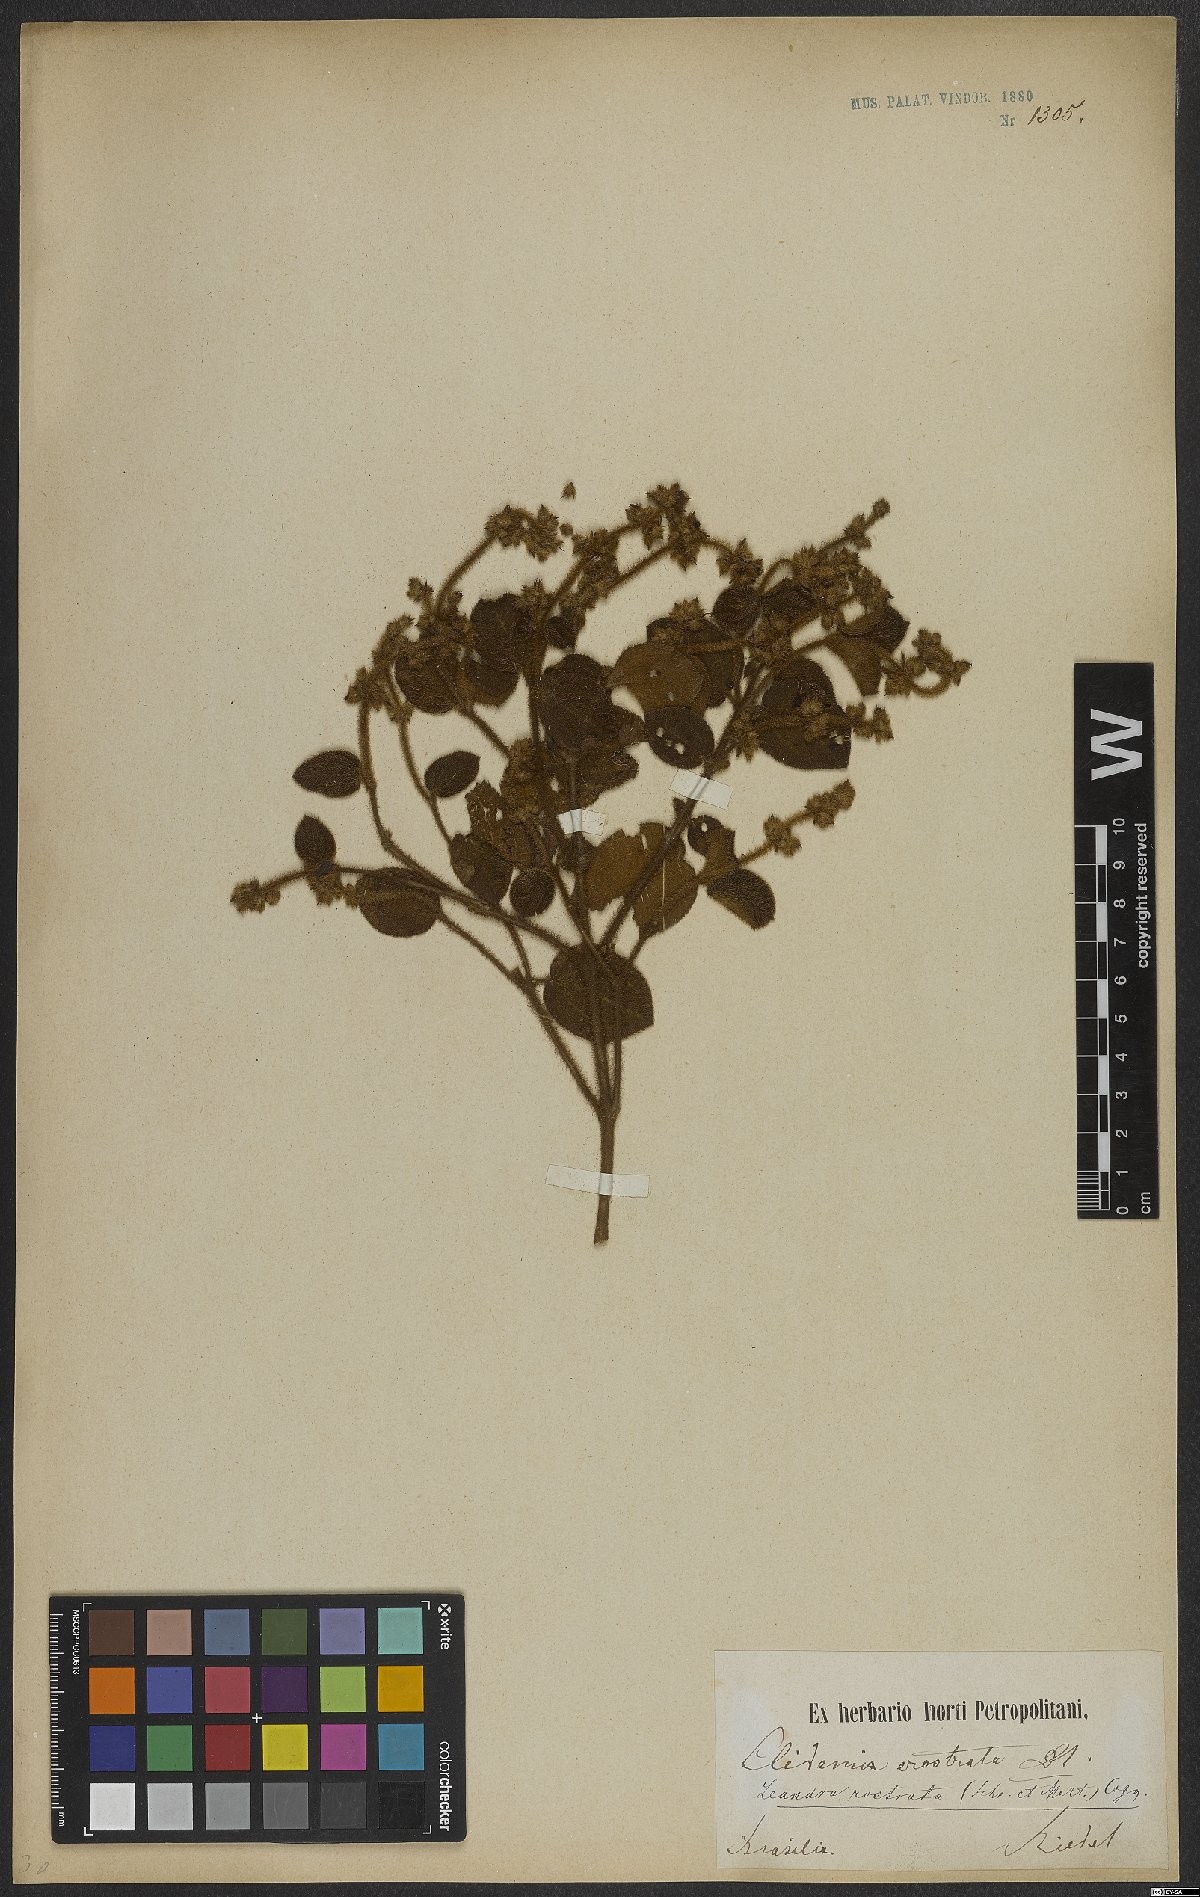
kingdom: Plantae
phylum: Tracheophyta
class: Magnoliopsida
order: Myrtales
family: Melastomataceae
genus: Miconia
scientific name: Miconia erostrata
